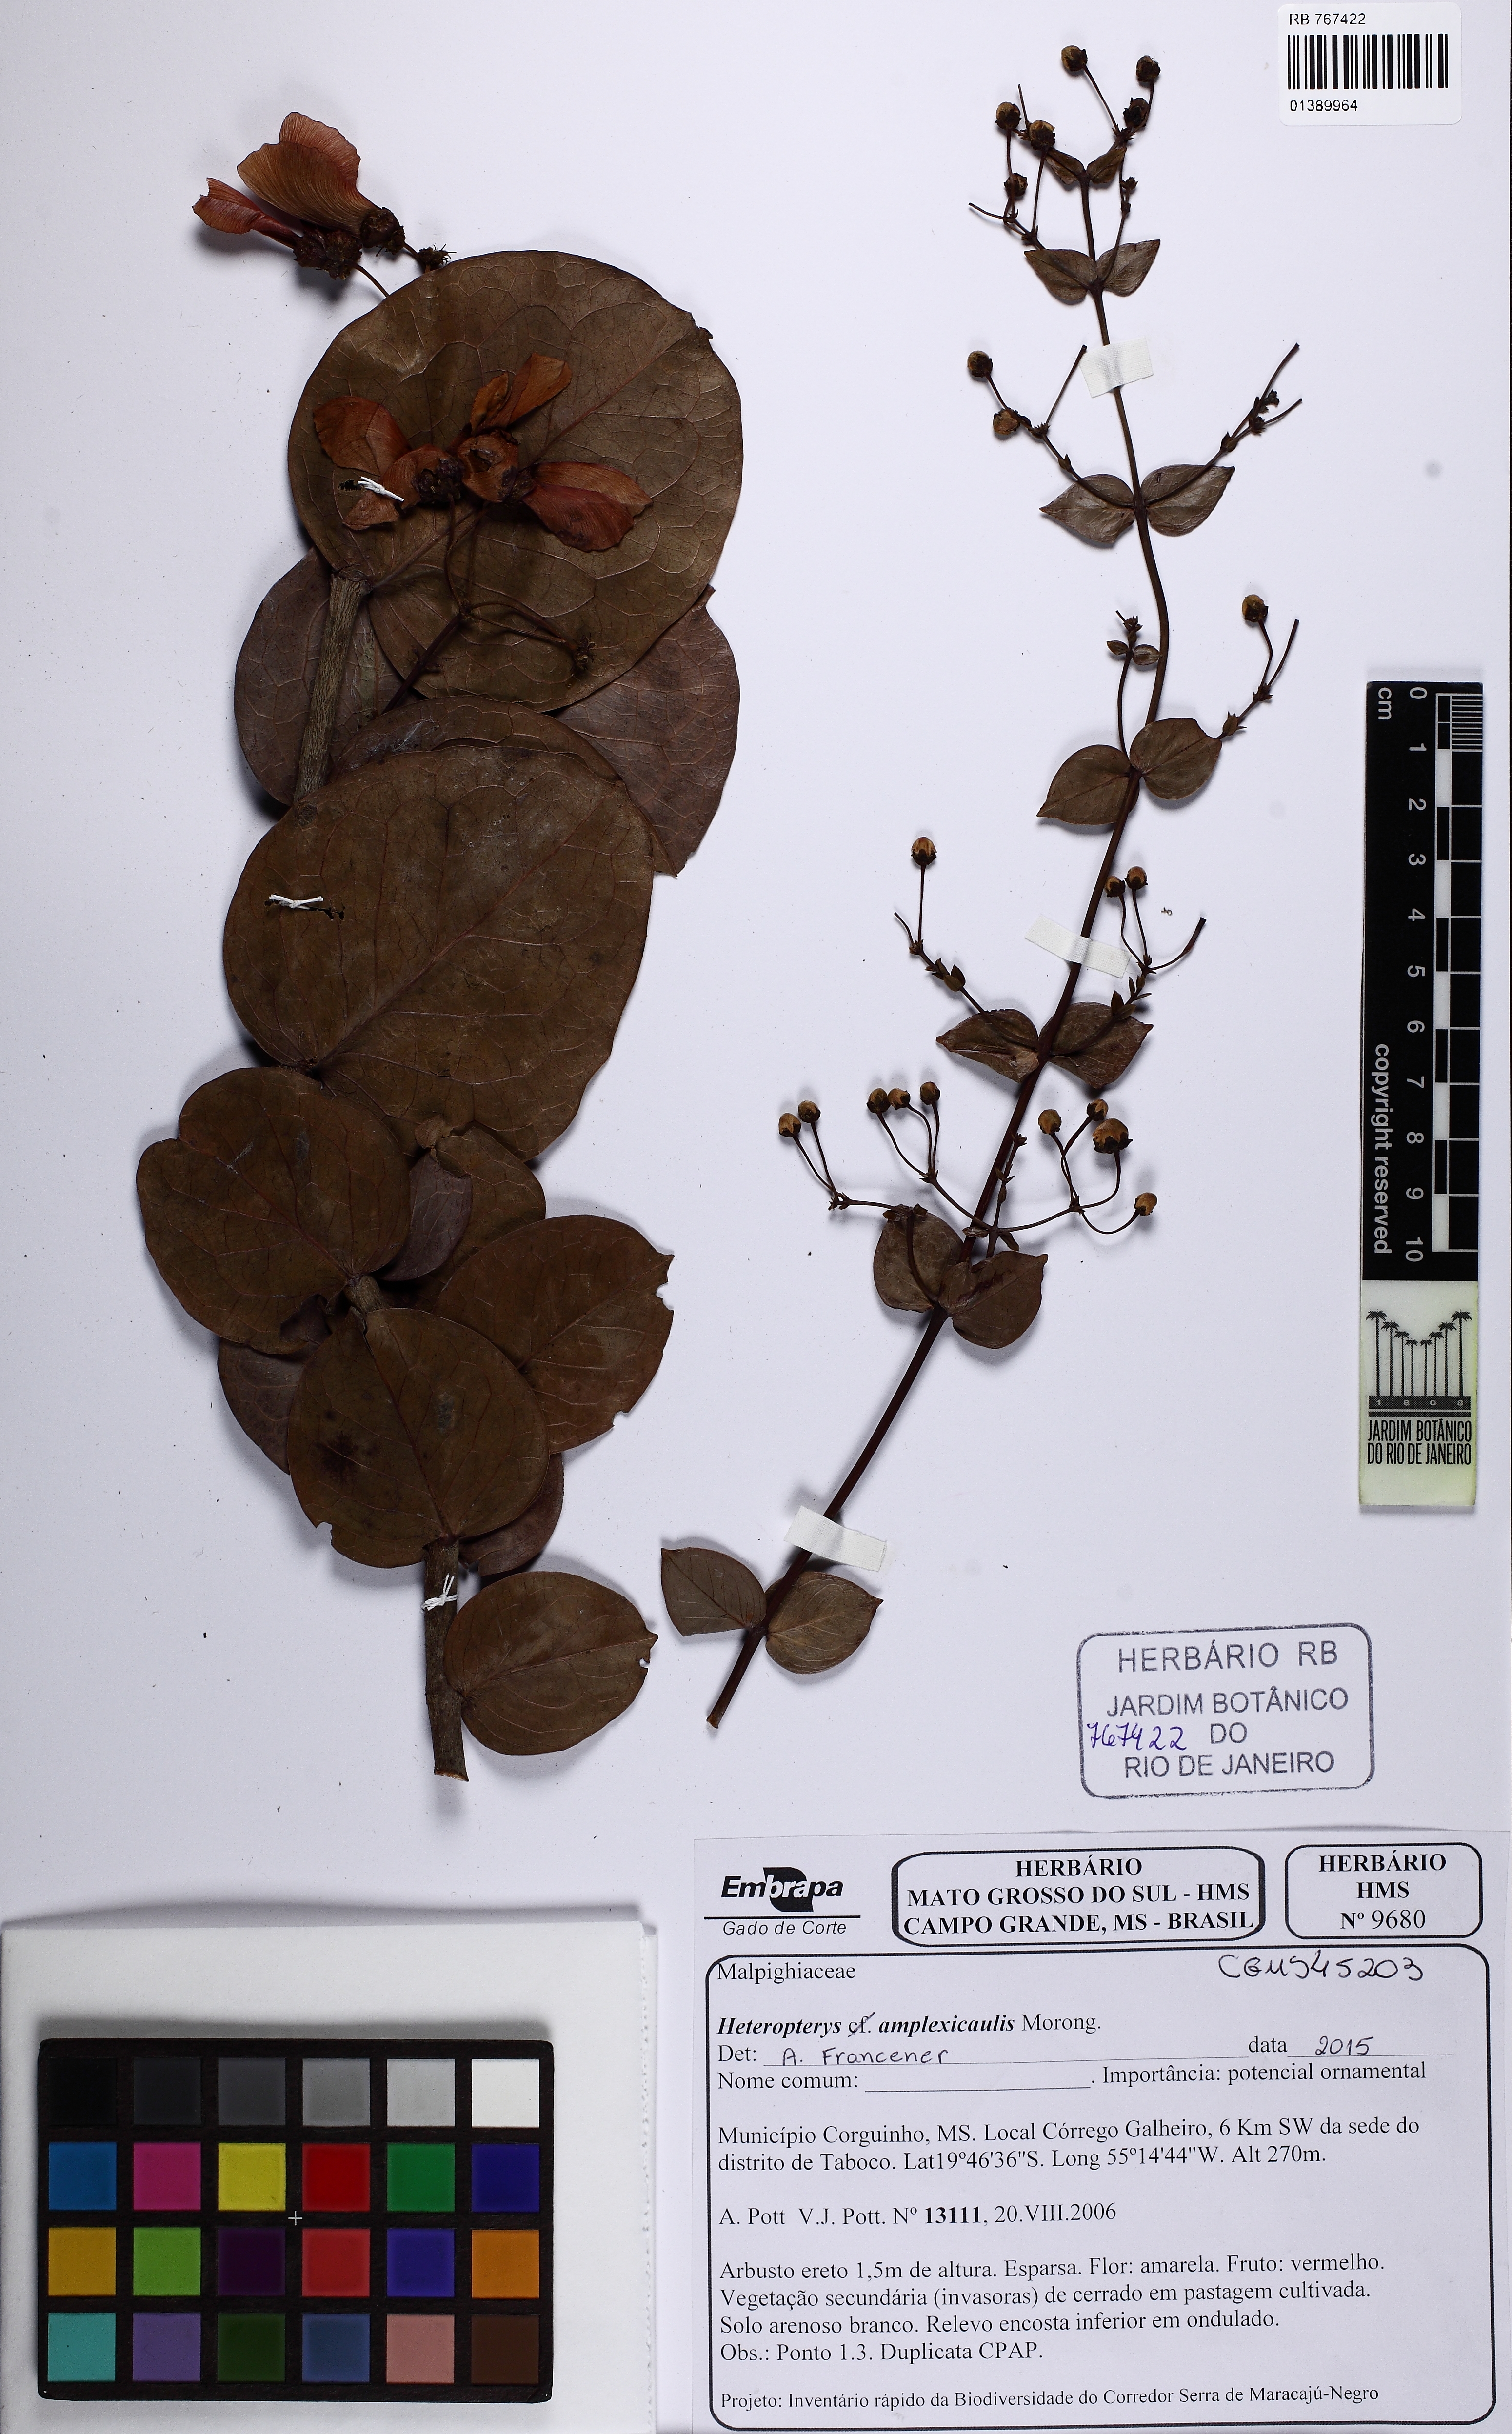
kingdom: Plantae
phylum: Tracheophyta
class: Magnoliopsida
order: Malpighiales
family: Malpighiaceae
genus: Heteropterys
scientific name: Heteropterys amplexicaulis
